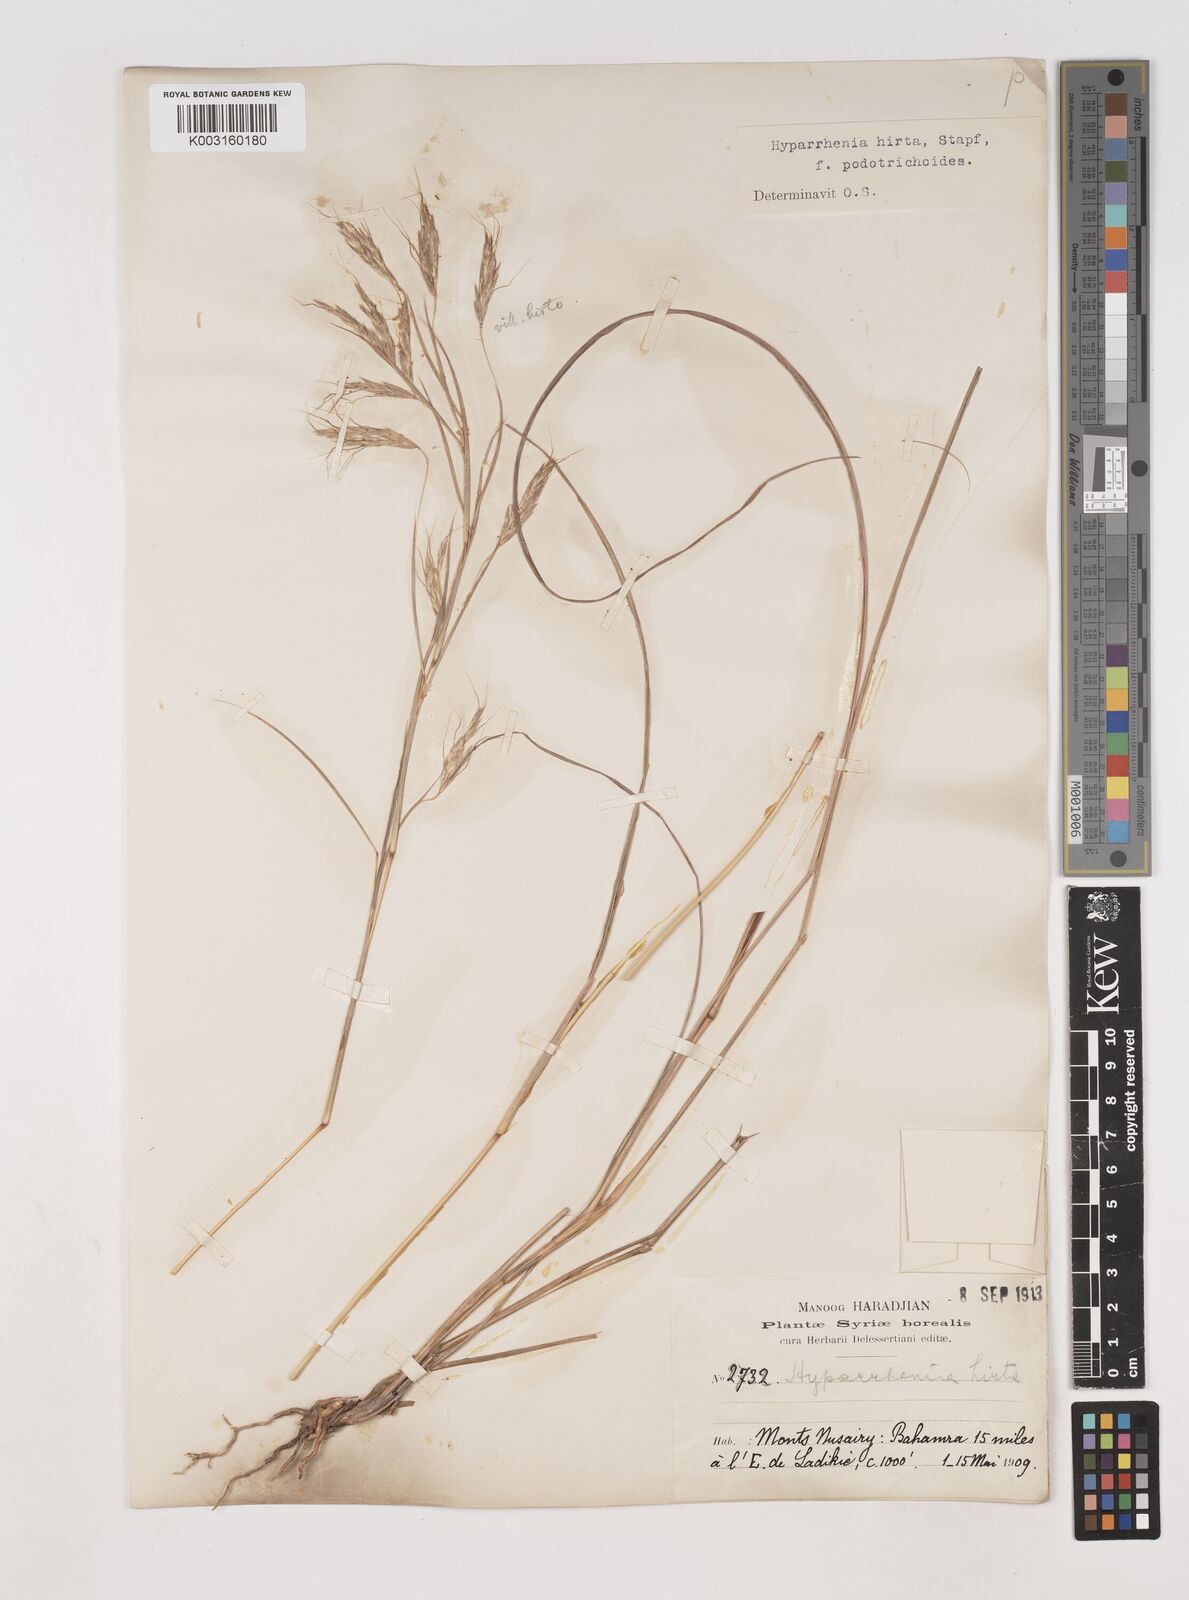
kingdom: Plantae
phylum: Tracheophyta
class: Liliopsida
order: Poales
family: Poaceae
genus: Hyparrhenia
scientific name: Hyparrhenia hirta
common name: Thatching grass
